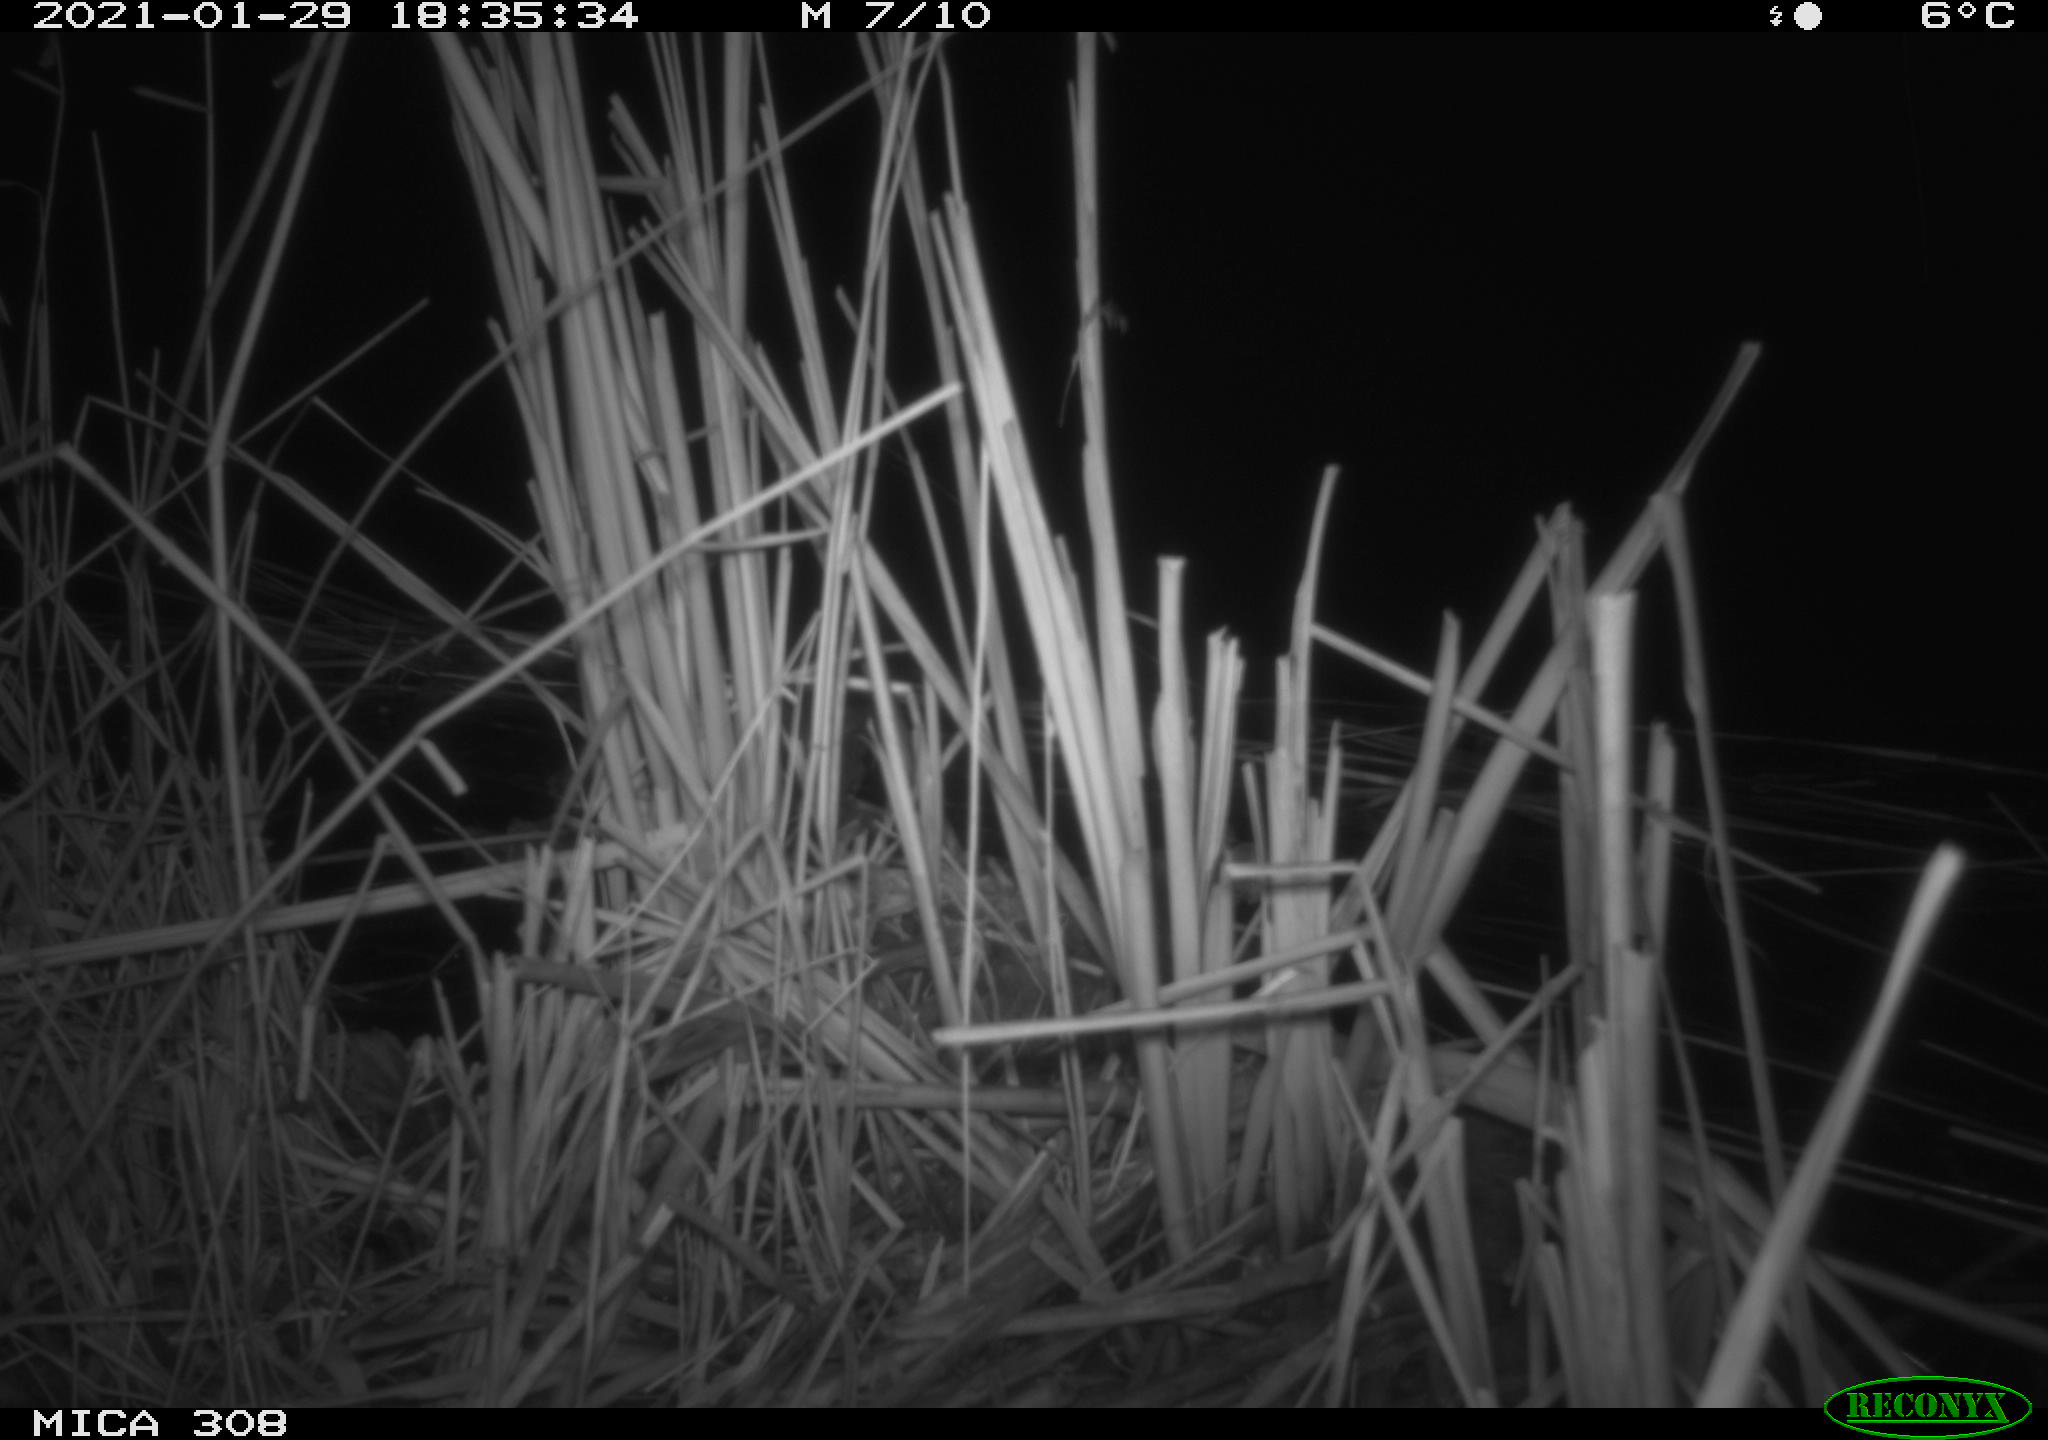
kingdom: Animalia
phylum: Chordata
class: Mammalia
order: Rodentia
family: Muridae
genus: Rattus
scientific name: Rattus norvegicus
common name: Brown rat
